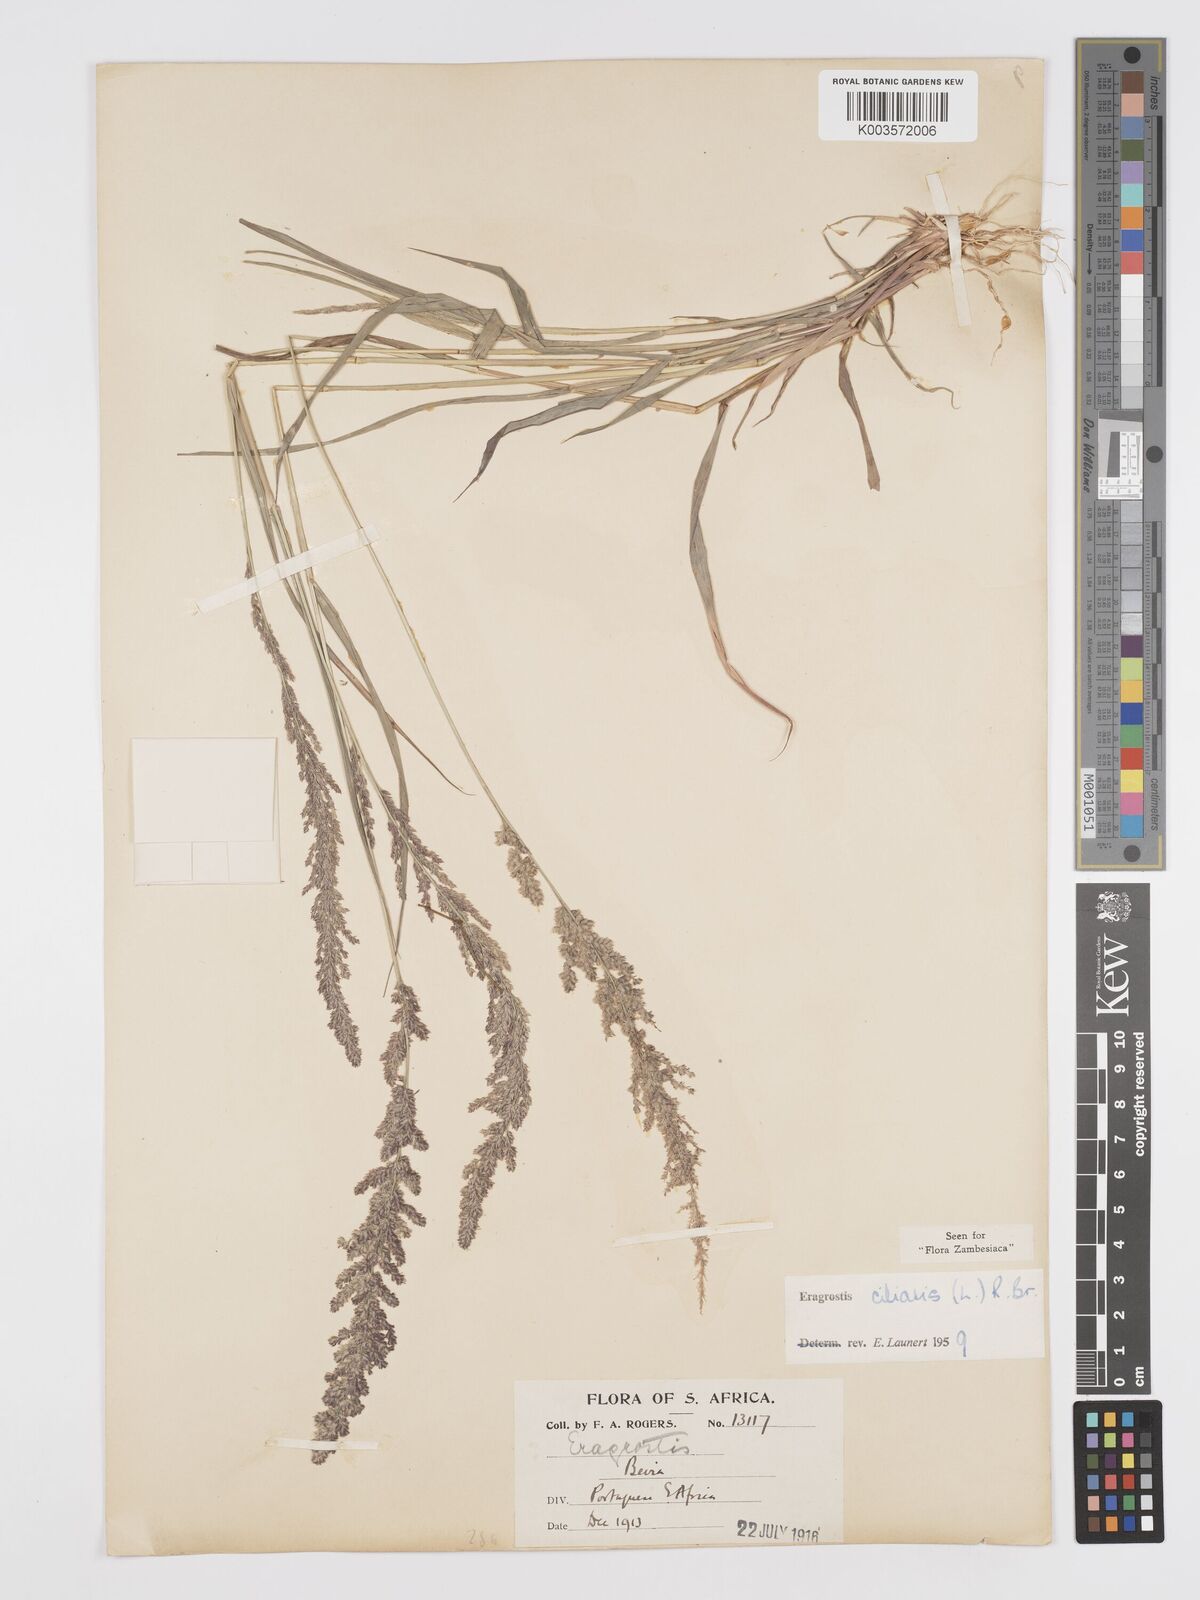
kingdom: Plantae
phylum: Tracheophyta
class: Liliopsida
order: Poales
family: Poaceae
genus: Eragrostis
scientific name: Eragrostis ciliaris
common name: Gophertail lovegrass
